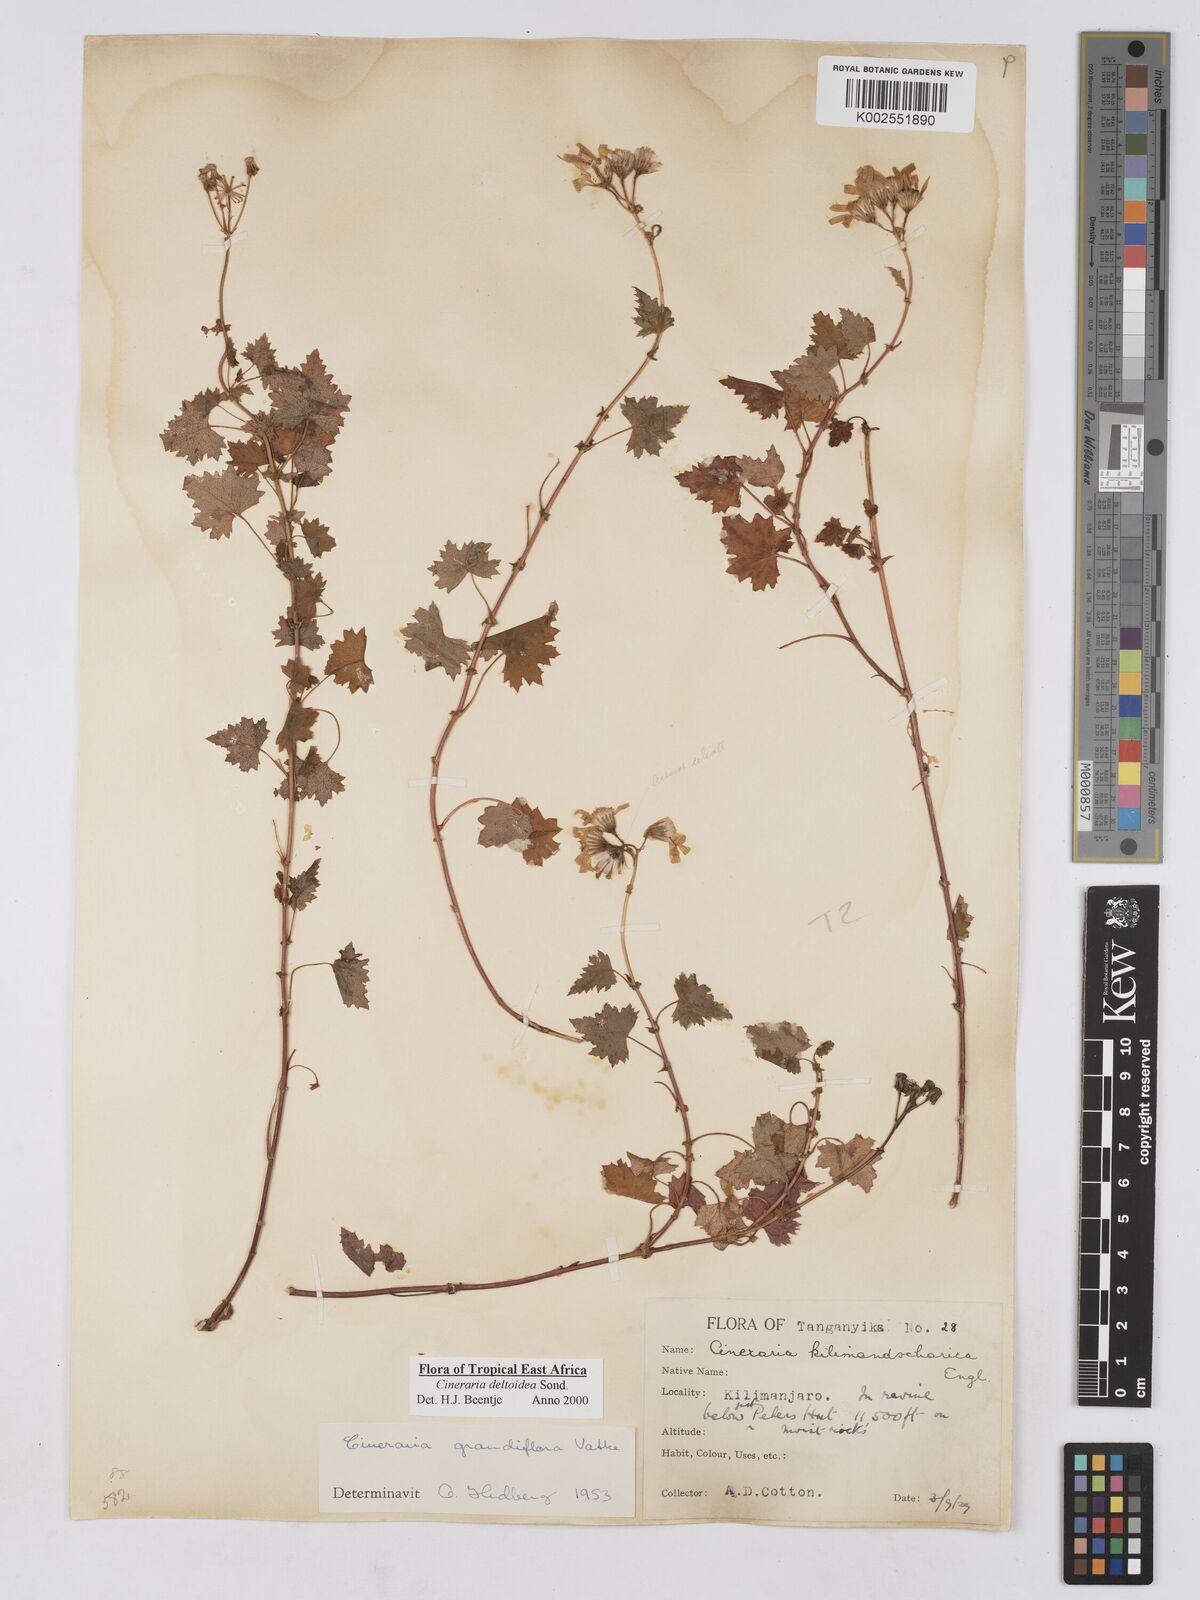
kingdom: Plantae
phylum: Tracheophyta
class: Magnoliopsida
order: Asterales
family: Asteraceae
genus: Cineraria
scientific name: Cineraria deltoidea
